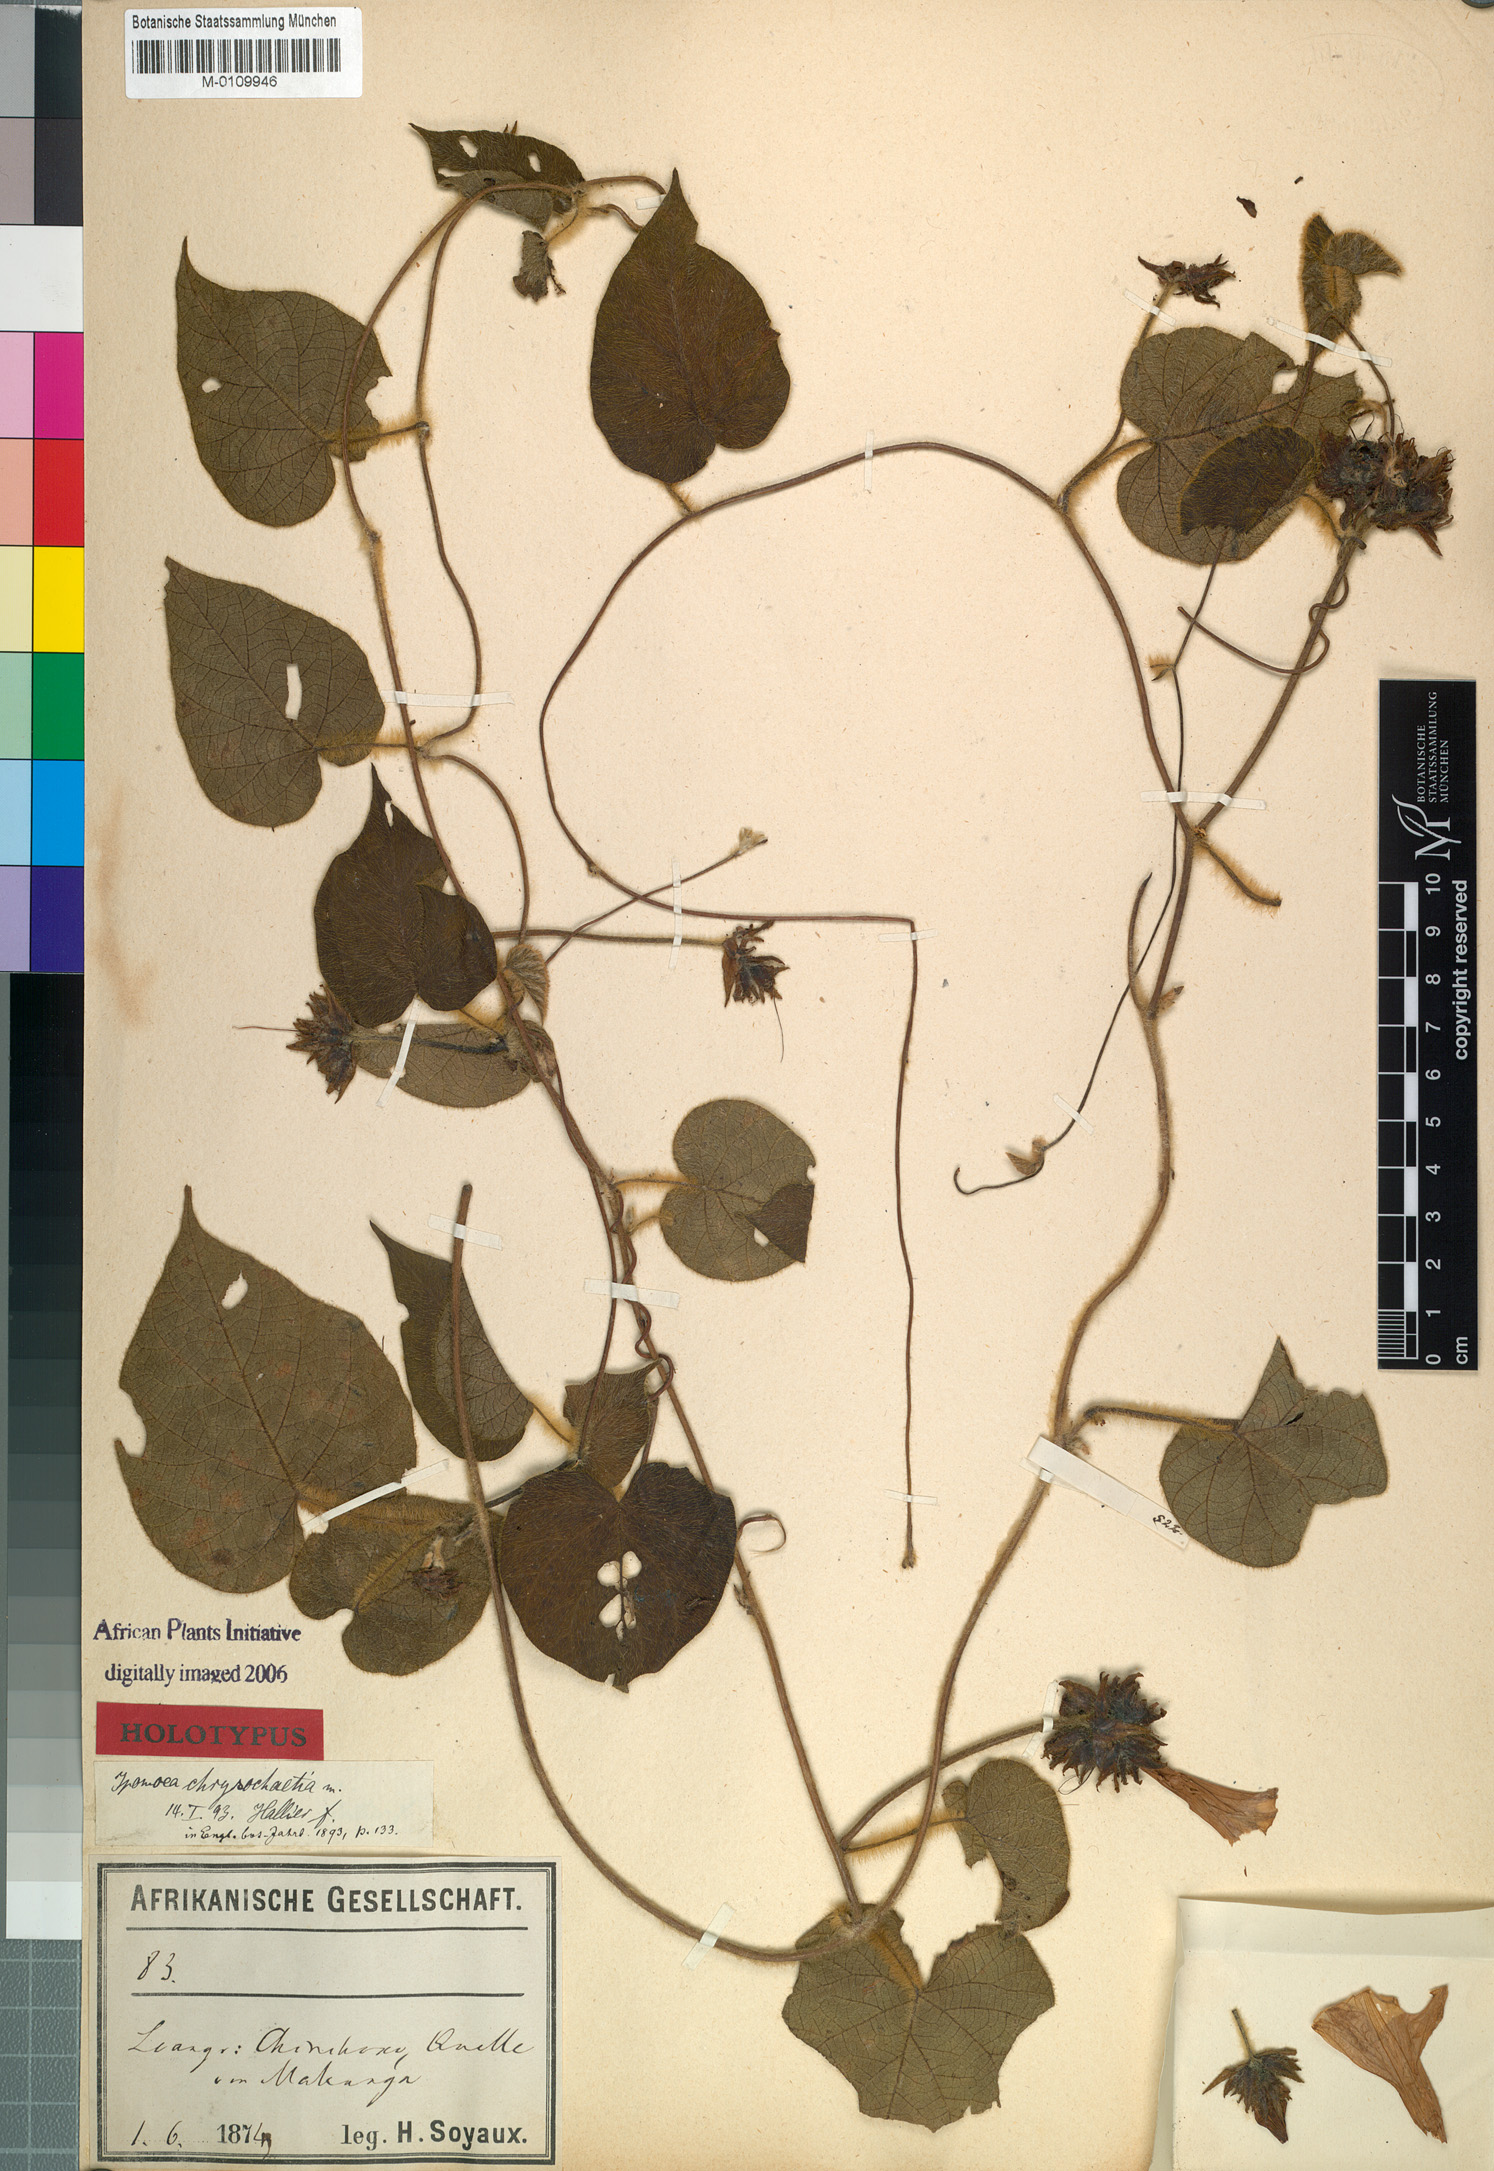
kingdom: Plantae
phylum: Tracheophyta
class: Magnoliopsida
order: Solanales
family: Convolvulaceae
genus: Ipomoea
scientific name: Ipomoea chrysochaetia
